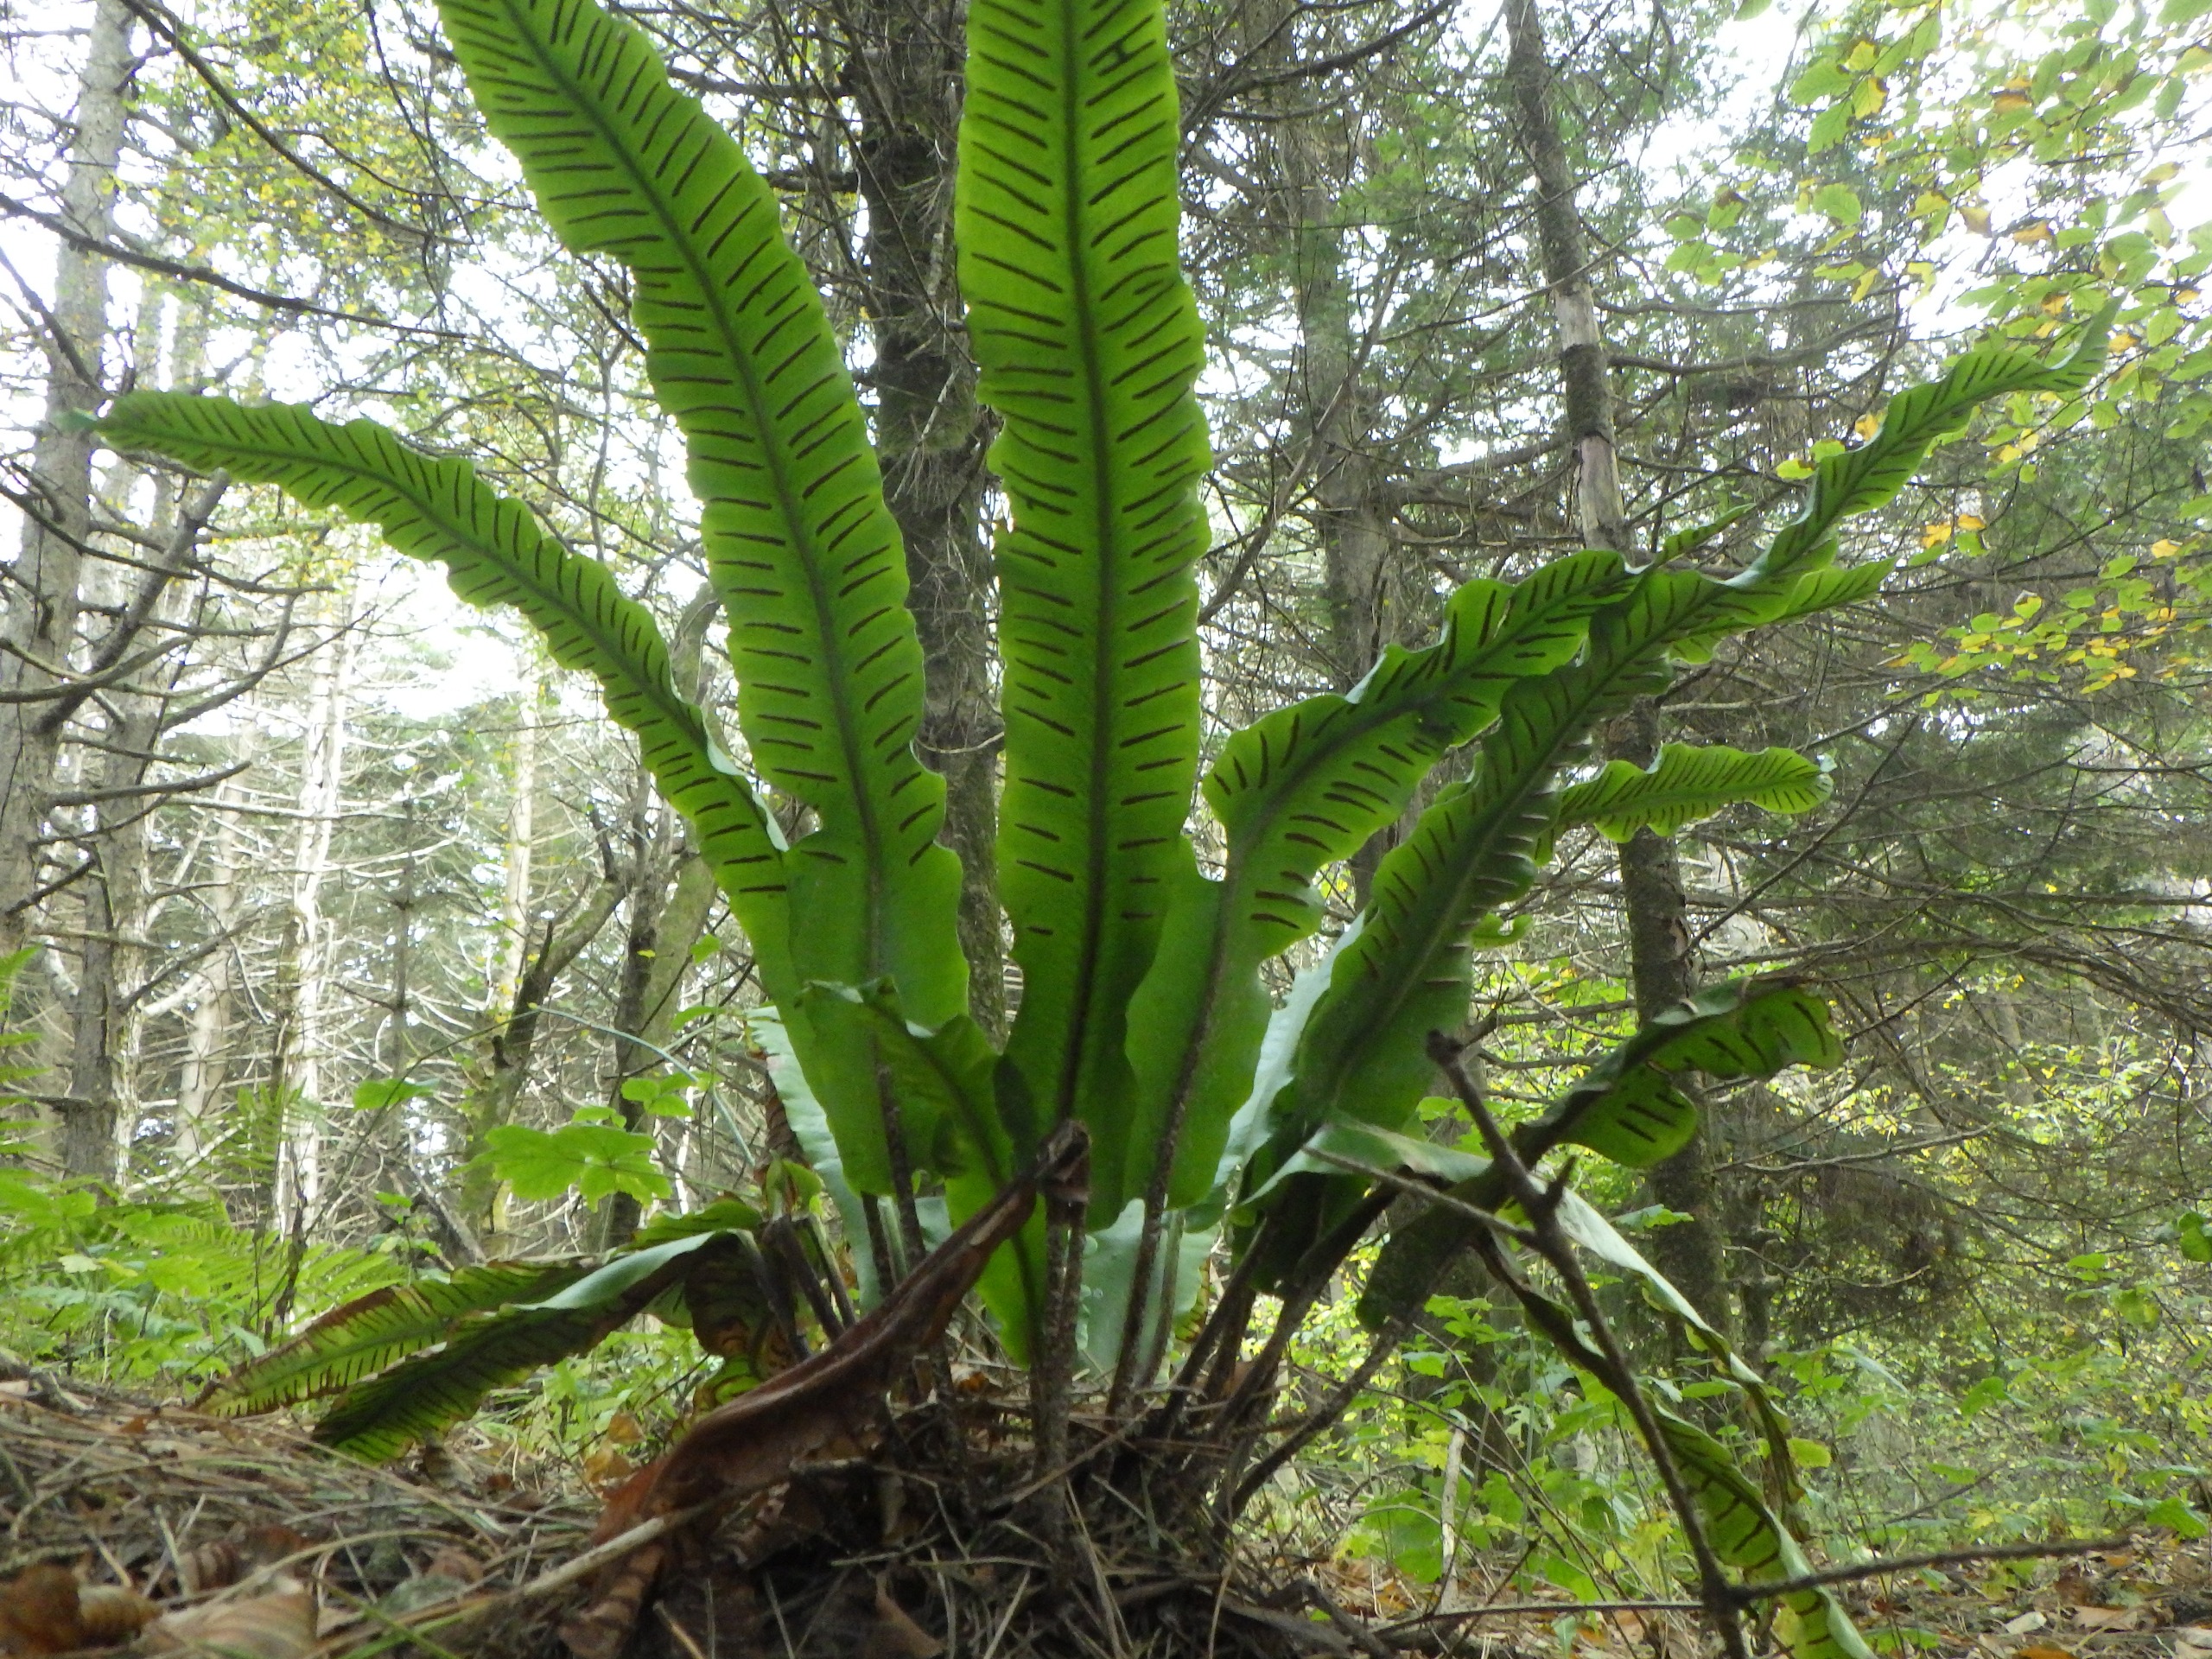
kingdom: Plantae
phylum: Tracheophyta
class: Polypodiopsida
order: Polypodiales
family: Aspleniaceae
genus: Asplenium
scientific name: Asplenium scolopendrium
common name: Hjortetunge
